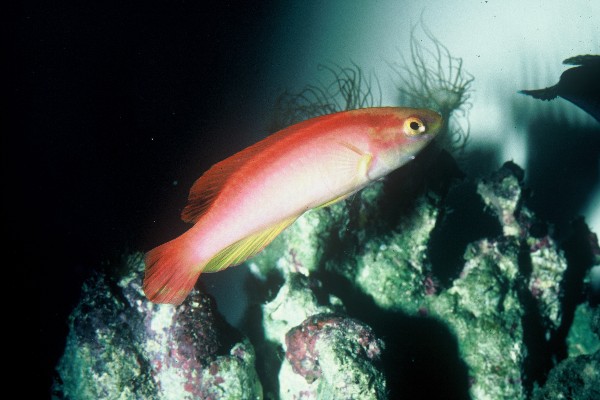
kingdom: Animalia
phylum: Chordata
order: Perciformes
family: Labridae
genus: Cirrhilabrus
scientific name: Cirrhilabrus jordani
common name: Flame wrasse
